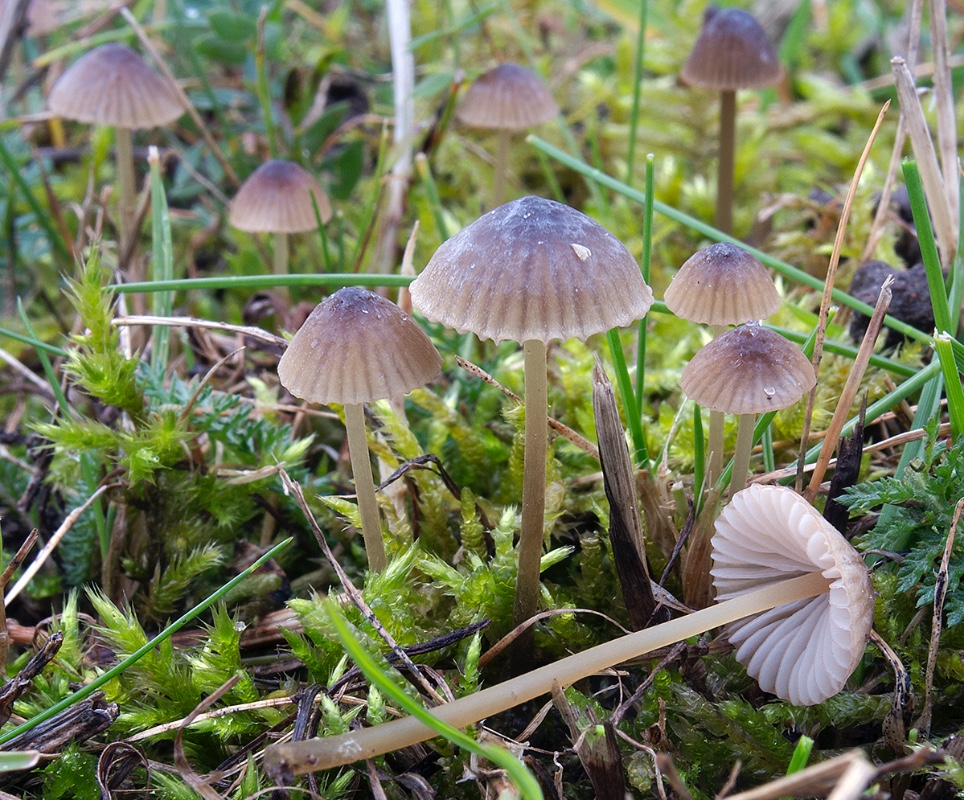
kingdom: Fungi
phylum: Basidiomycota
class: Agaricomycetes
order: Agaricales
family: Mycenaceae
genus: Mycena
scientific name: Mycena olivaceomarginata
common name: brunægget huesvamp
